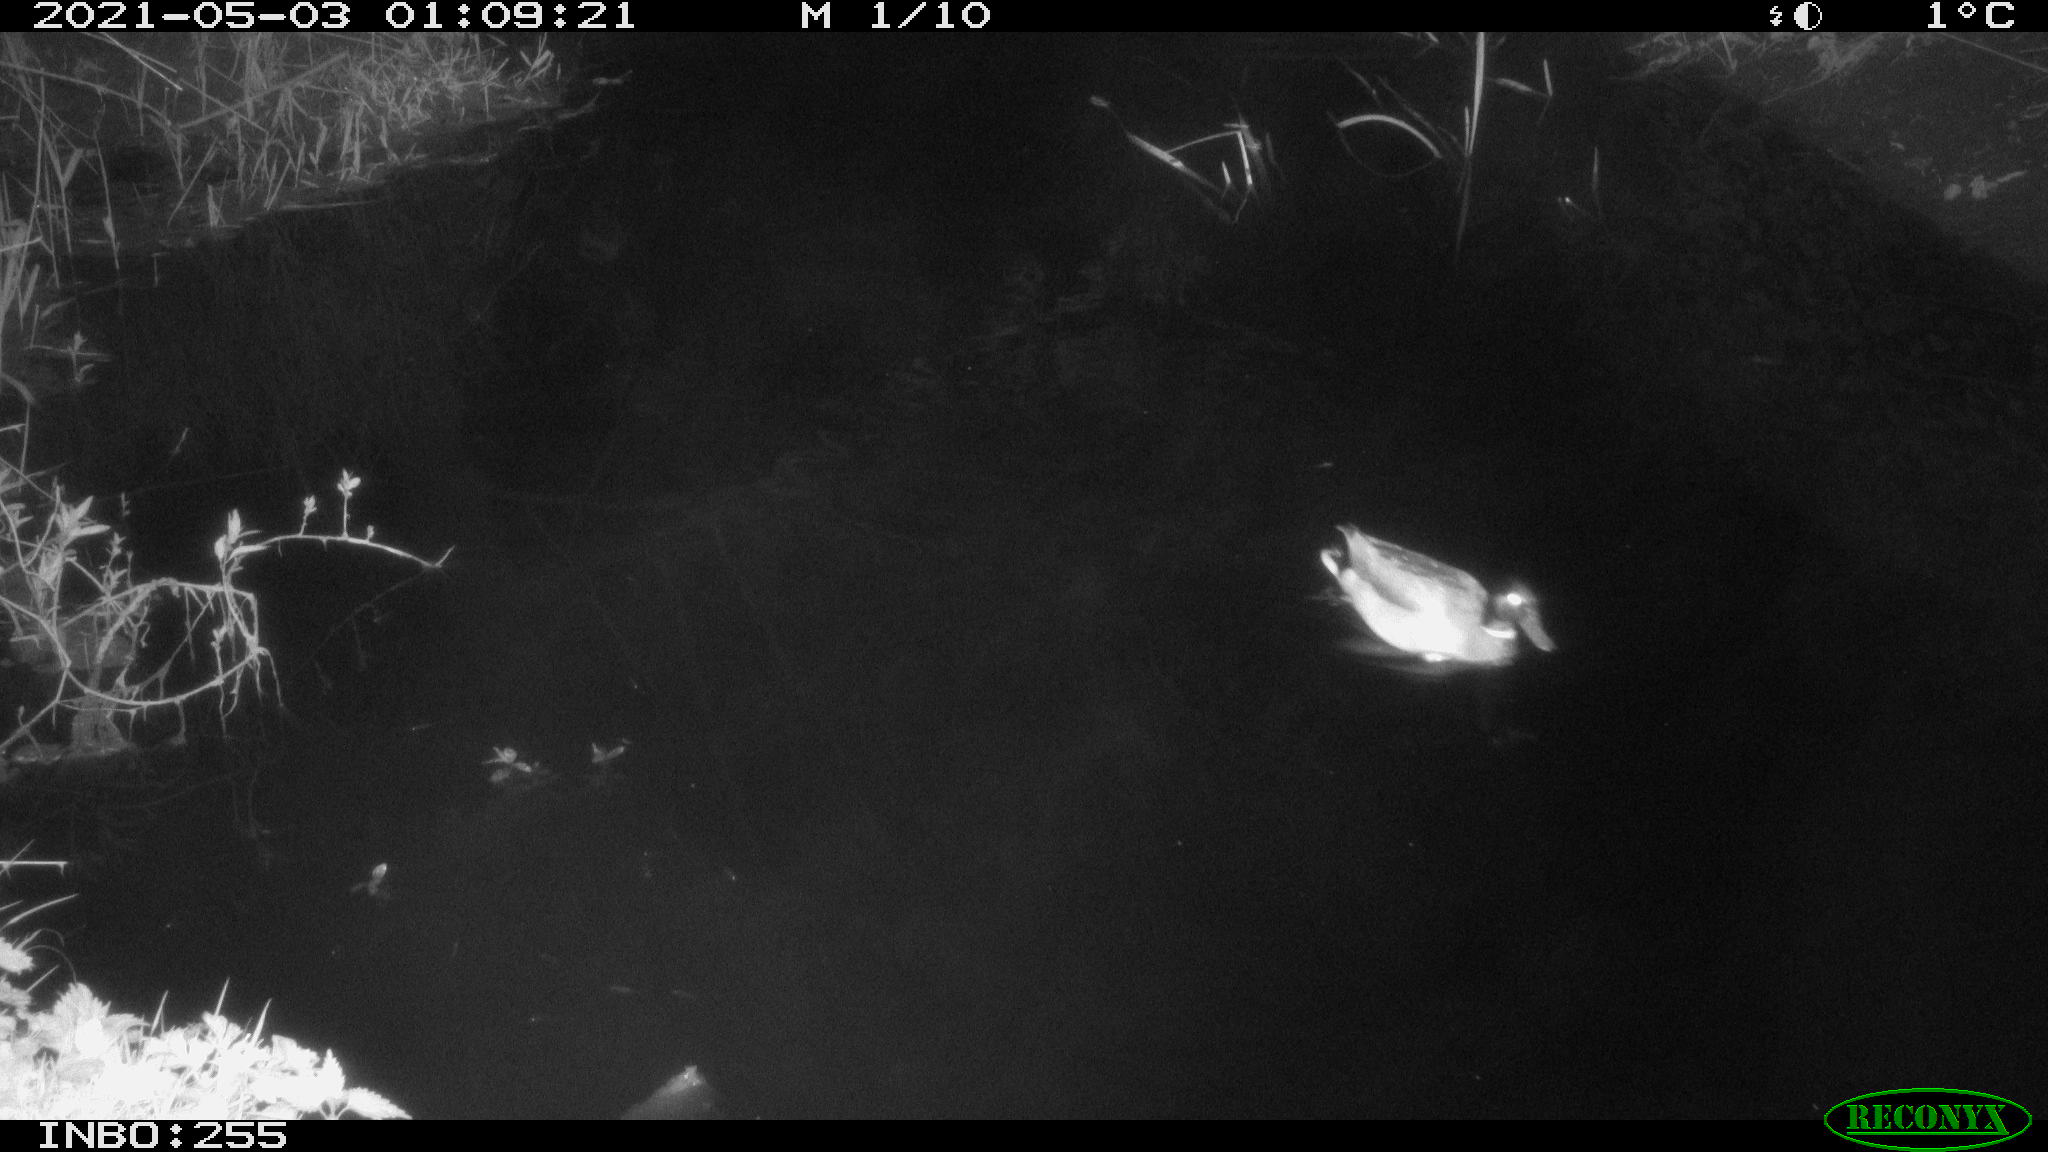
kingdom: Animalia
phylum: Chordata
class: Aves
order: Anseriformes
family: Anatidae
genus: Anas
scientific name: Anas platyrhynchos
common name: Mallard
